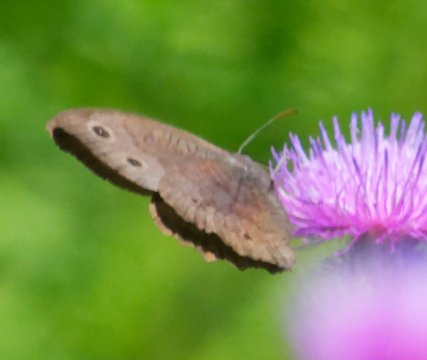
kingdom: Animalia
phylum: Arthropoda
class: Insecta
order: Lepidoptera
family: Nymphalidae
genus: Cercyonis
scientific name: Cercyonis pegala
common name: Common Wood-Nymph
